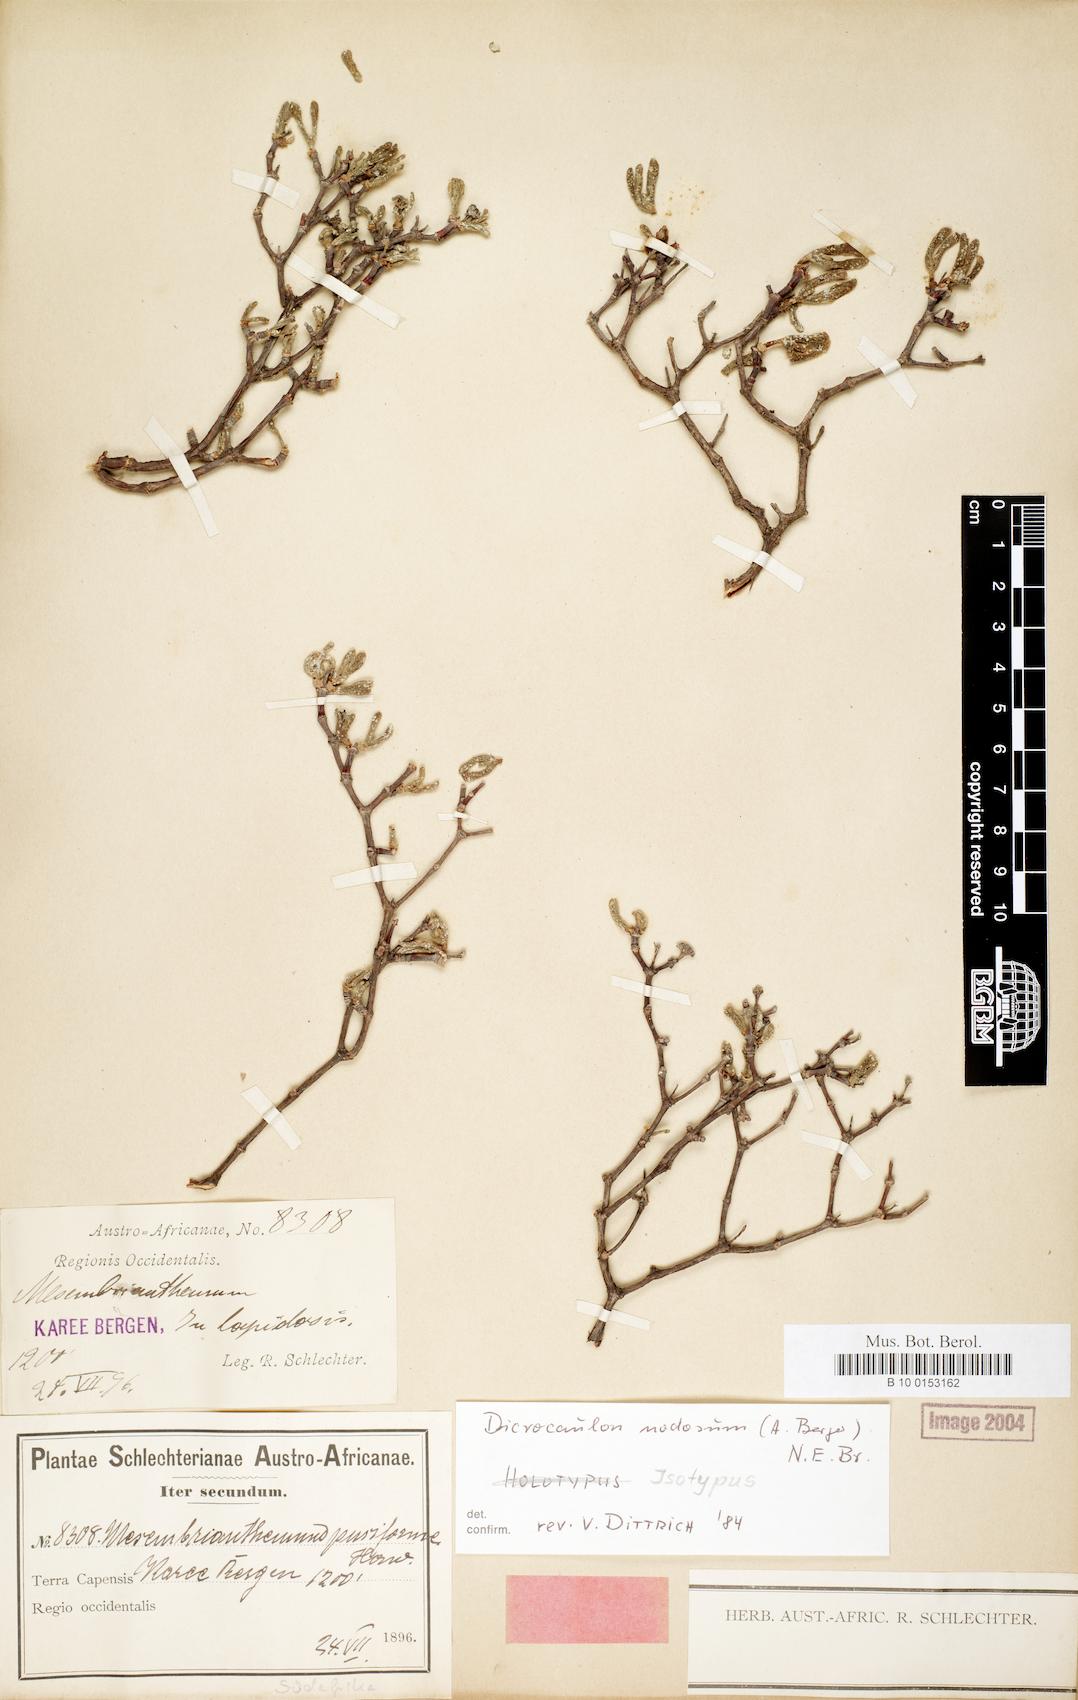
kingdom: Plantae
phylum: Tracheophyta
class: Magnoliopsida
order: Caryophyllales
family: Aizoaceae
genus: Dicrocaulon
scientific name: Dicrocaulon nodosum
